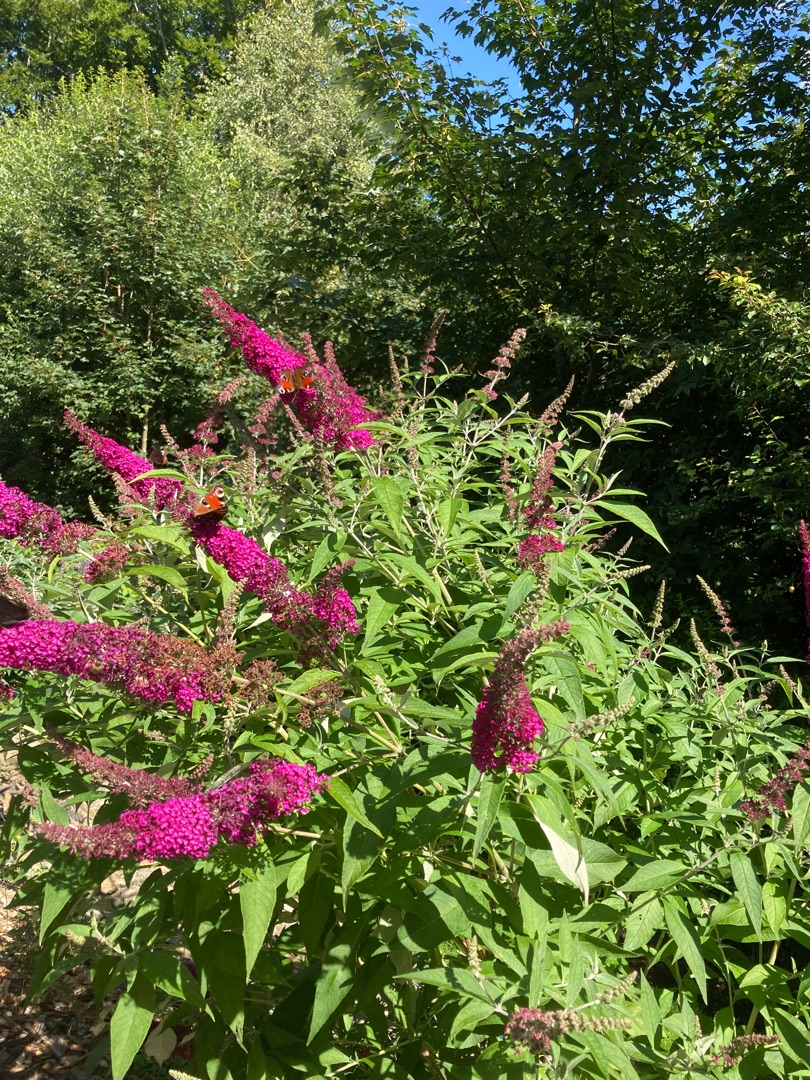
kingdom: Animalia
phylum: Arthropoda
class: Insecta
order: Lepidoptera
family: Nymphalidae
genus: Aglais
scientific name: Aglais io
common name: Dagpåfugleøje
